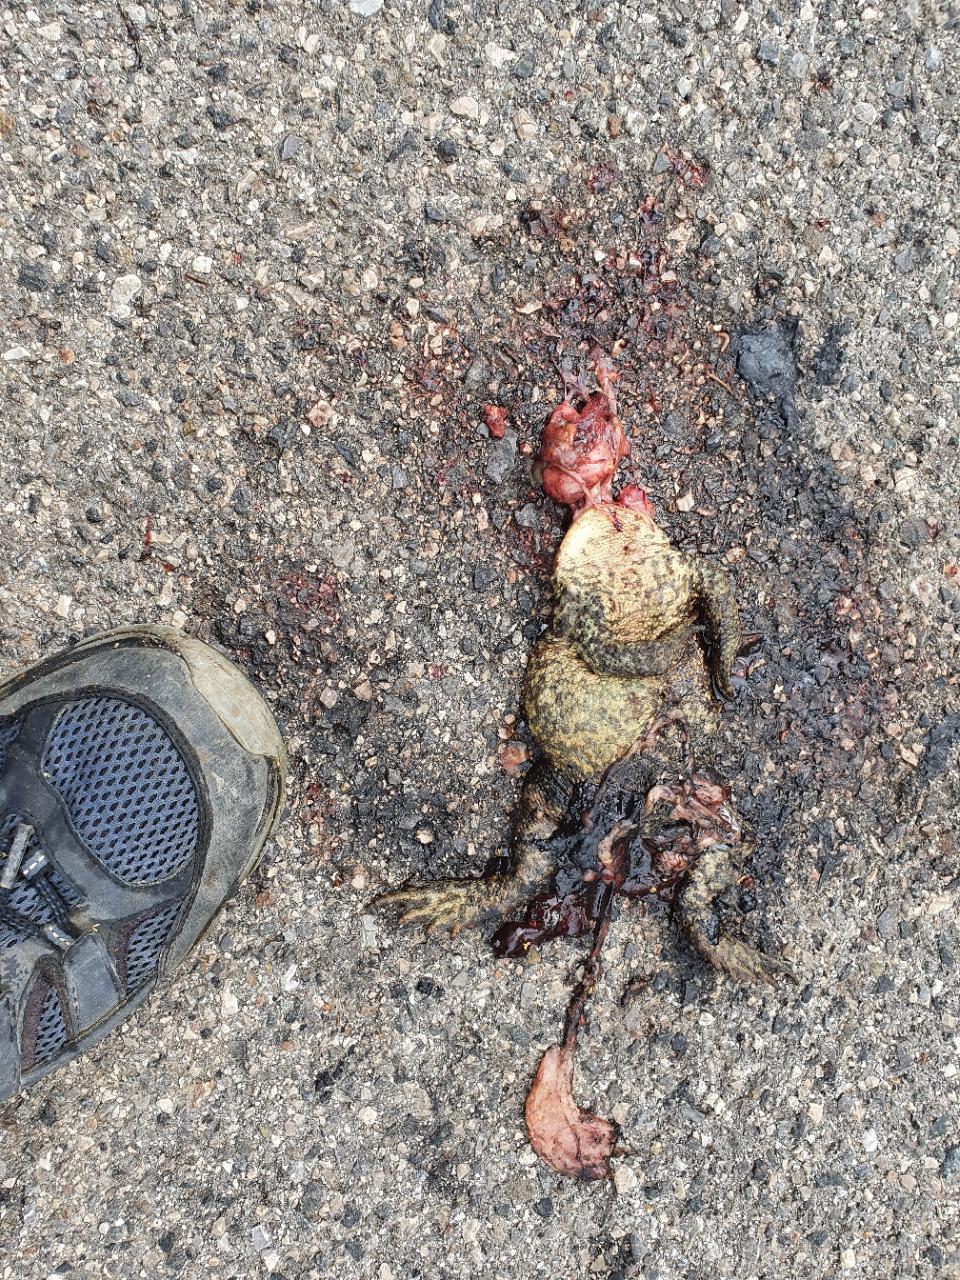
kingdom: Animalia
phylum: Chordata
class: Amphibia
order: Anura
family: Bufonidae
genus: Bufo
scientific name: Bufo bufo
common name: Common toad
